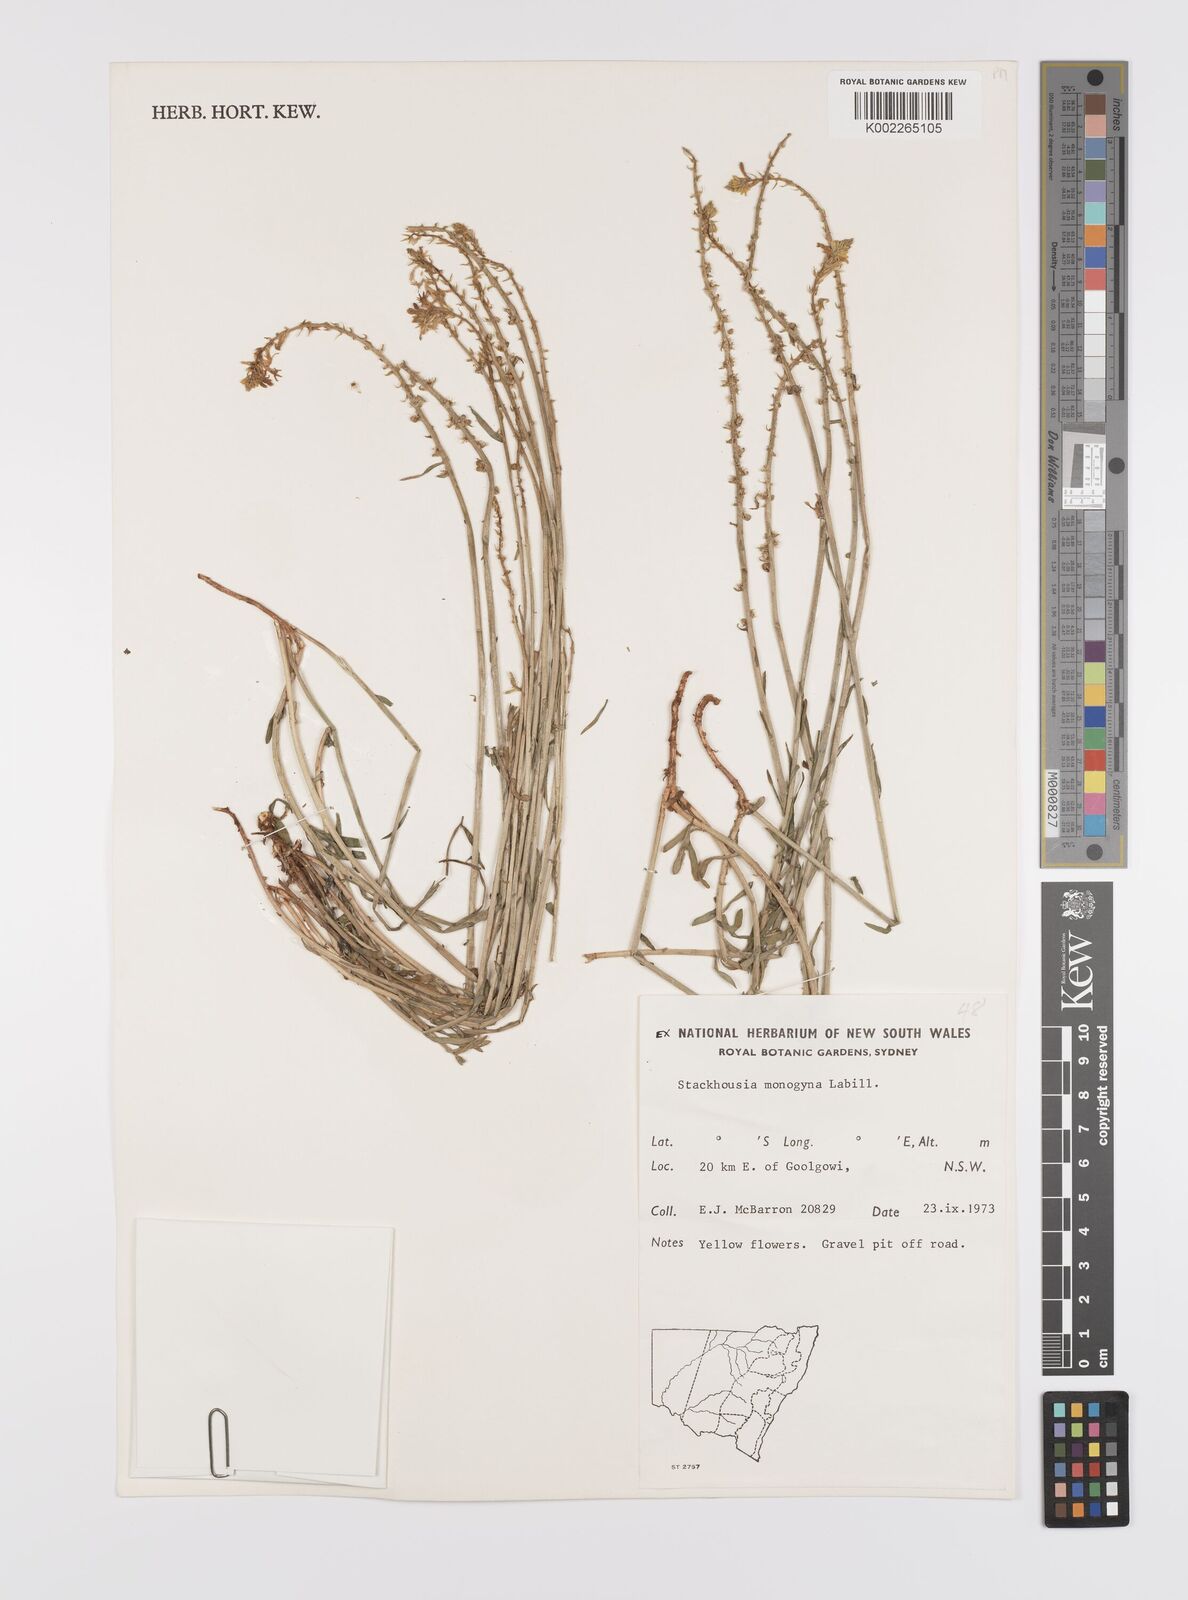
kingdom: Plantae
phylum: Tracheophyta
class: Magnoliopsida
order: Celastrales
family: Celastraceae
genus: Stackhousia
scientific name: Stackhousia monogyna
